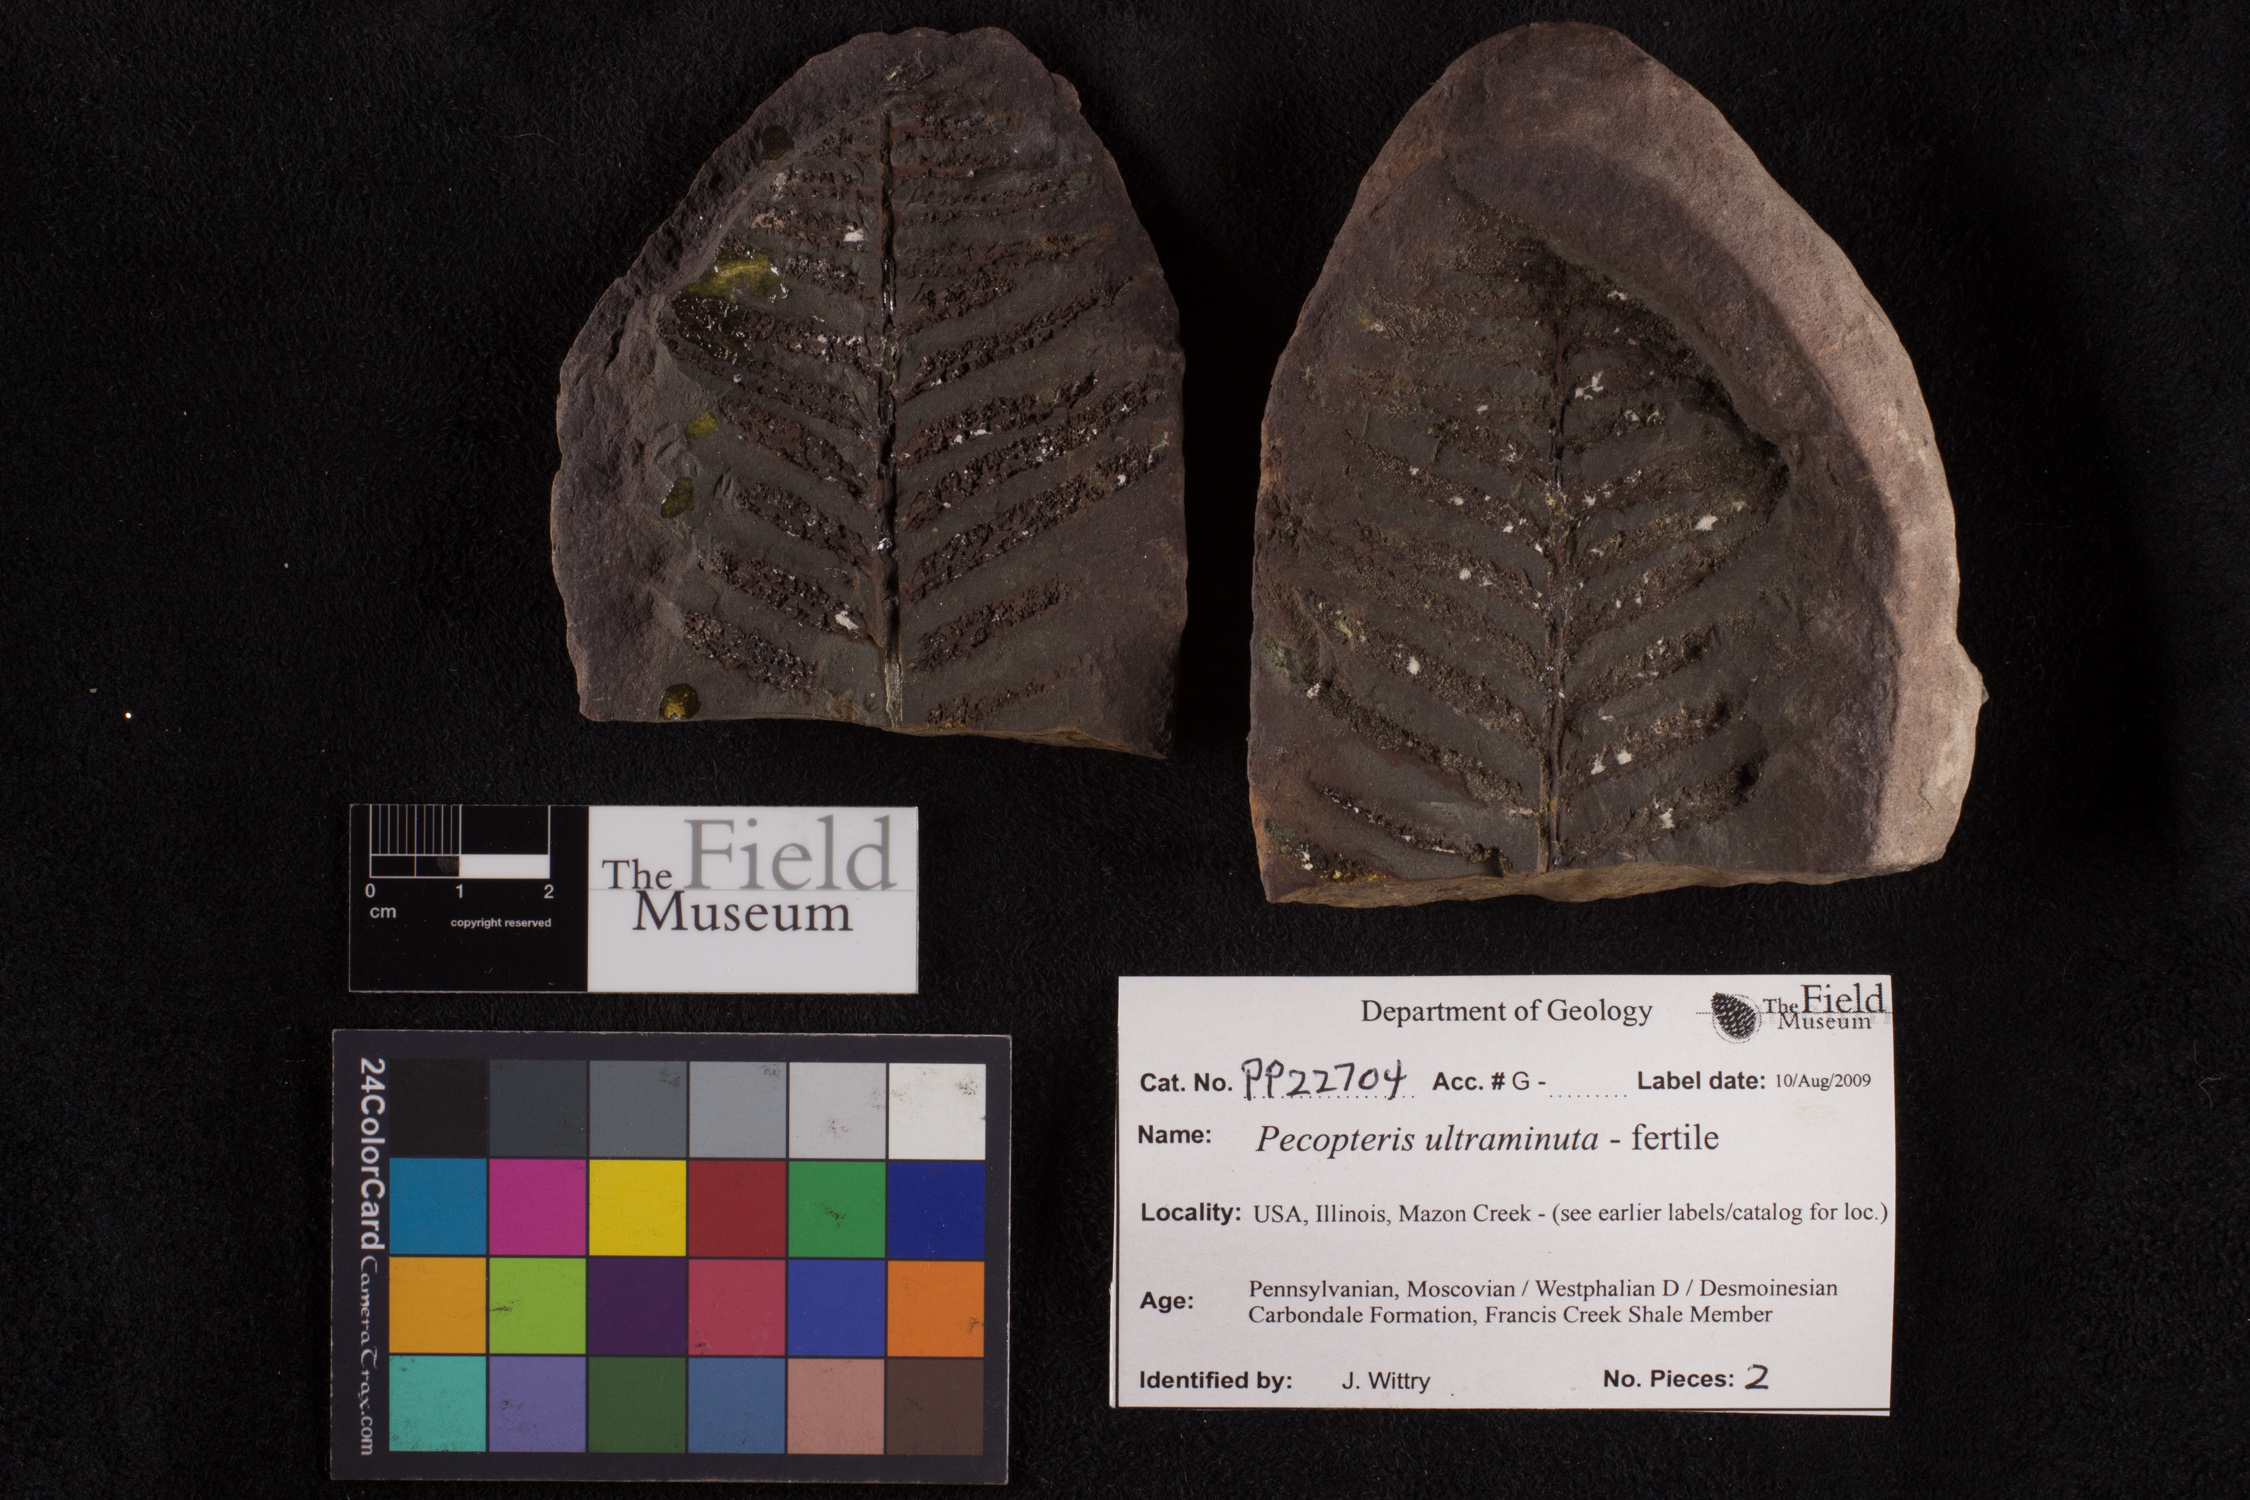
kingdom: Plantae
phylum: Tracheophyta
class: Polypodiopsida
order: Marattiales
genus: Cyathocarpus
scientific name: Cyathocarpus
